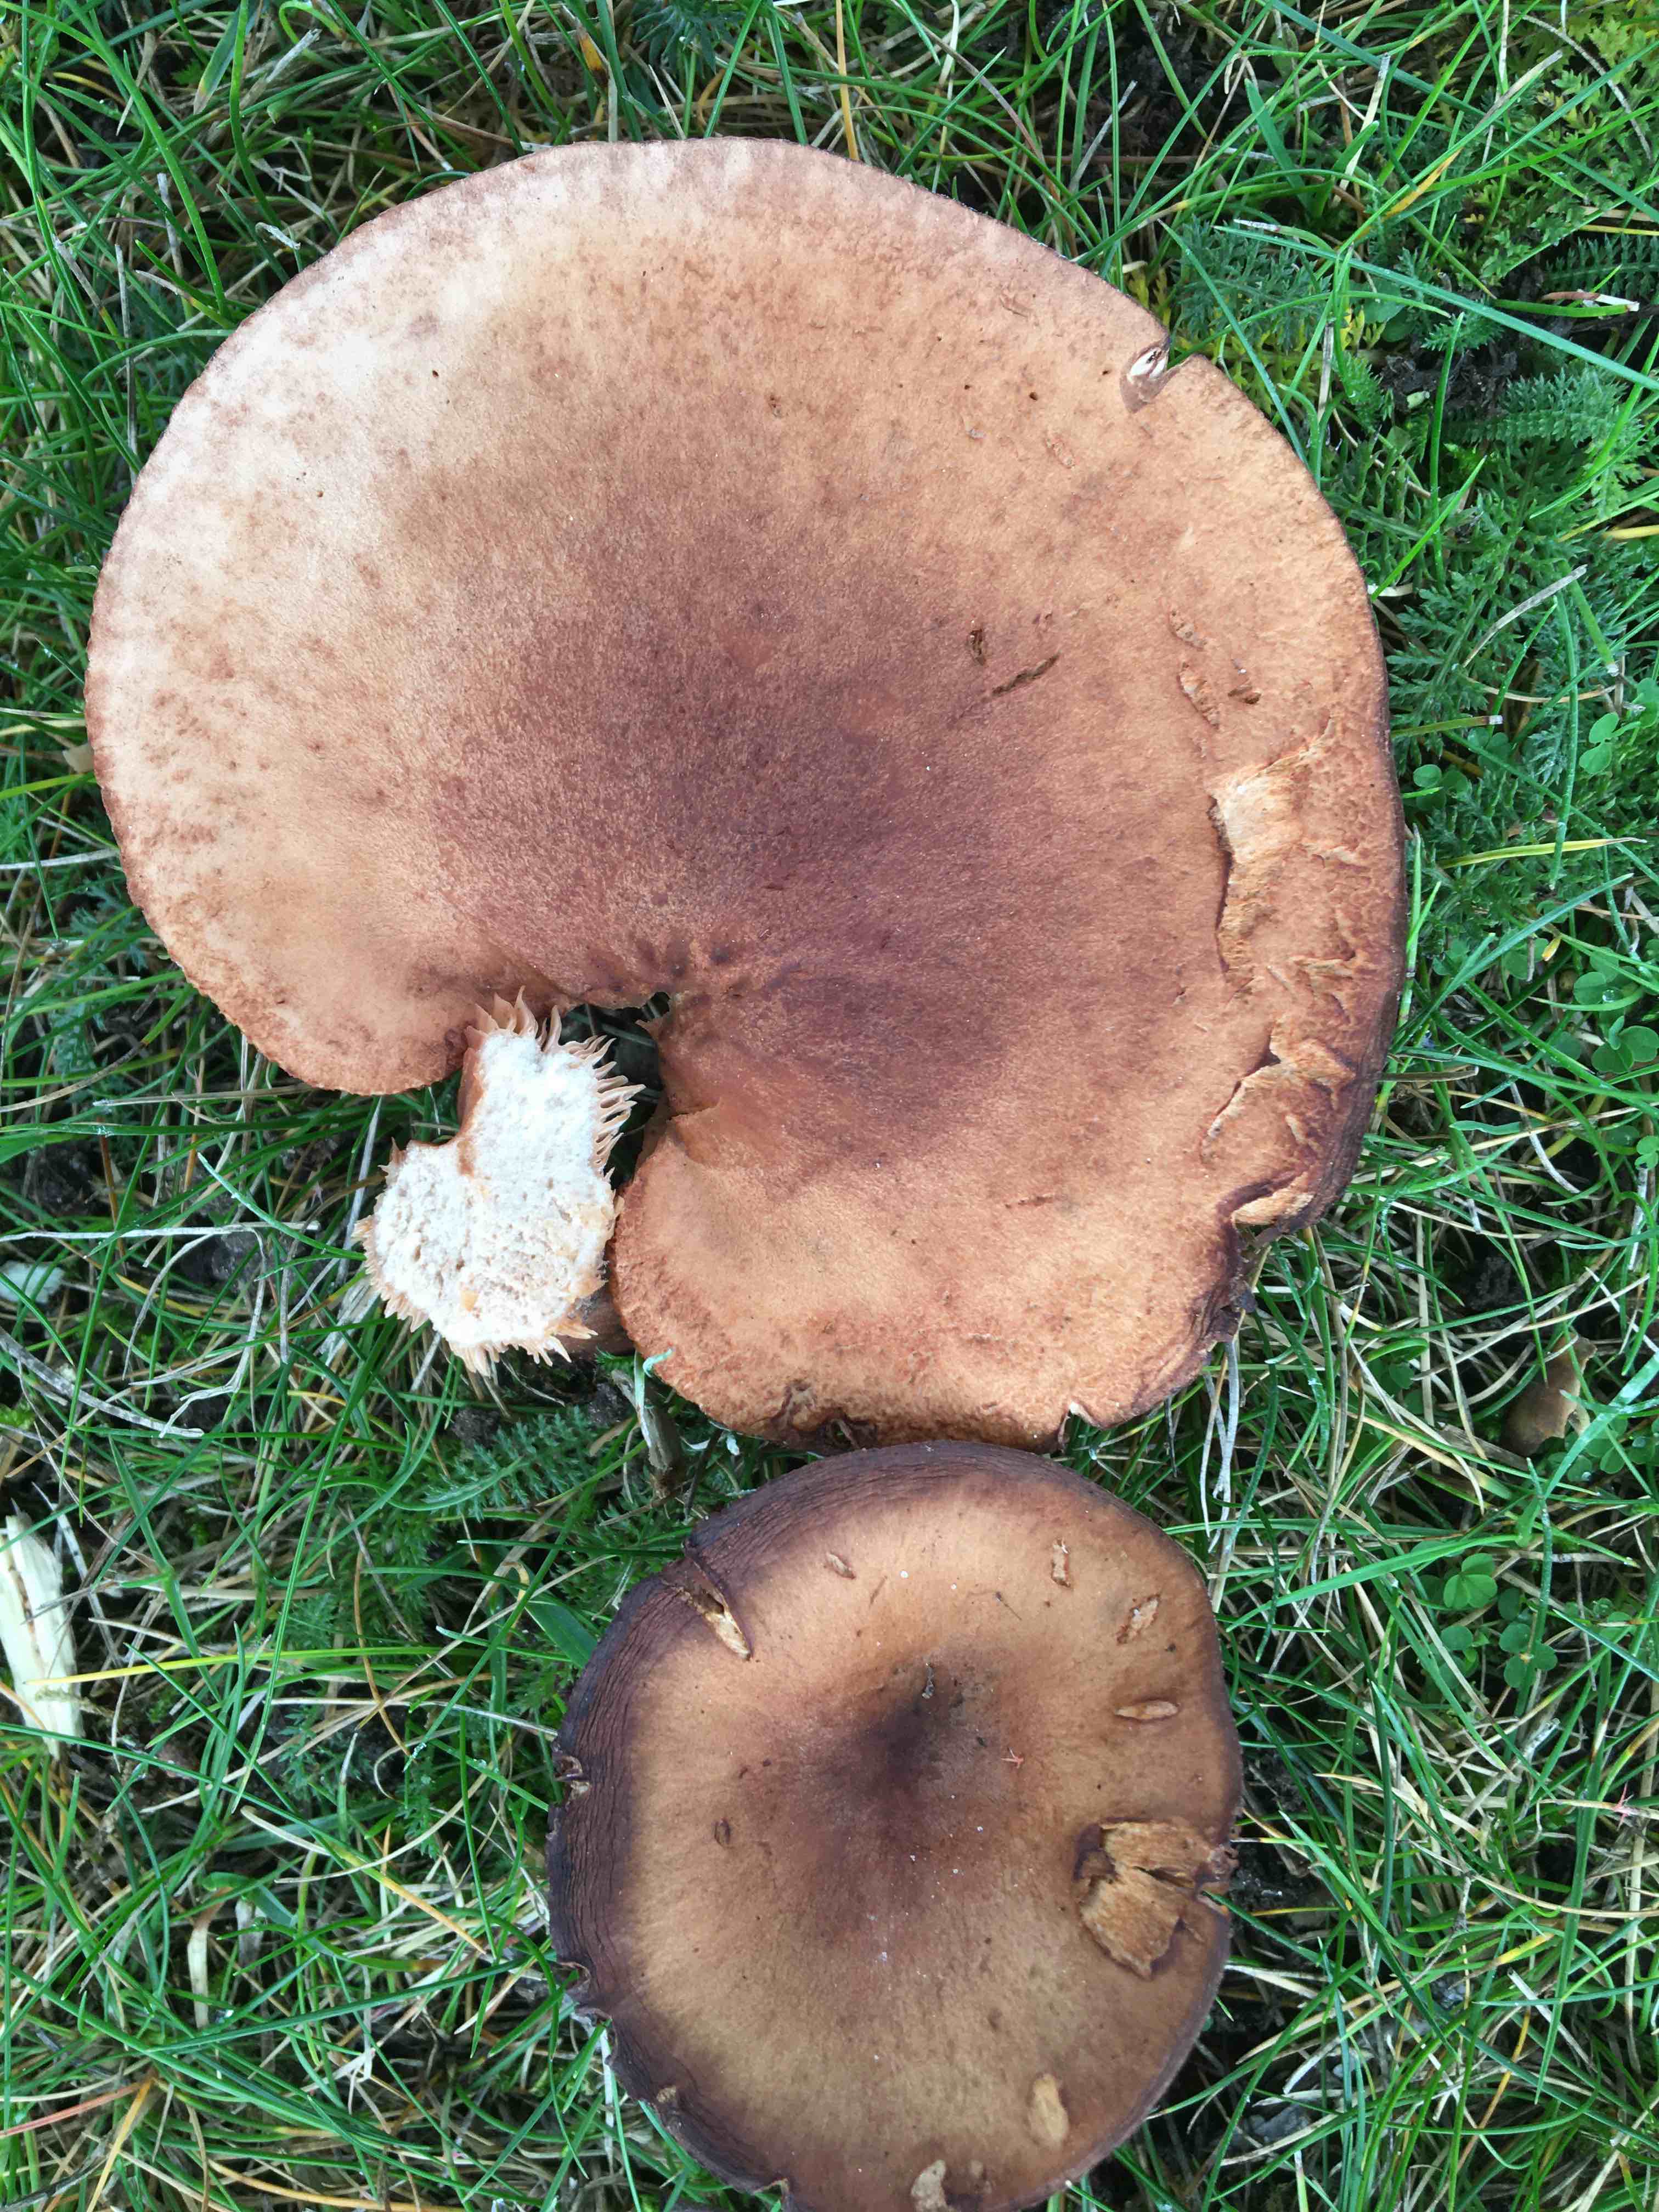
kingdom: Fungi
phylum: Basidiomycota
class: Agaricomycetes
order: Russulales
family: Russulaceae
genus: Lactarius
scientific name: Lactarius quietus
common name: ege-mælkehat
